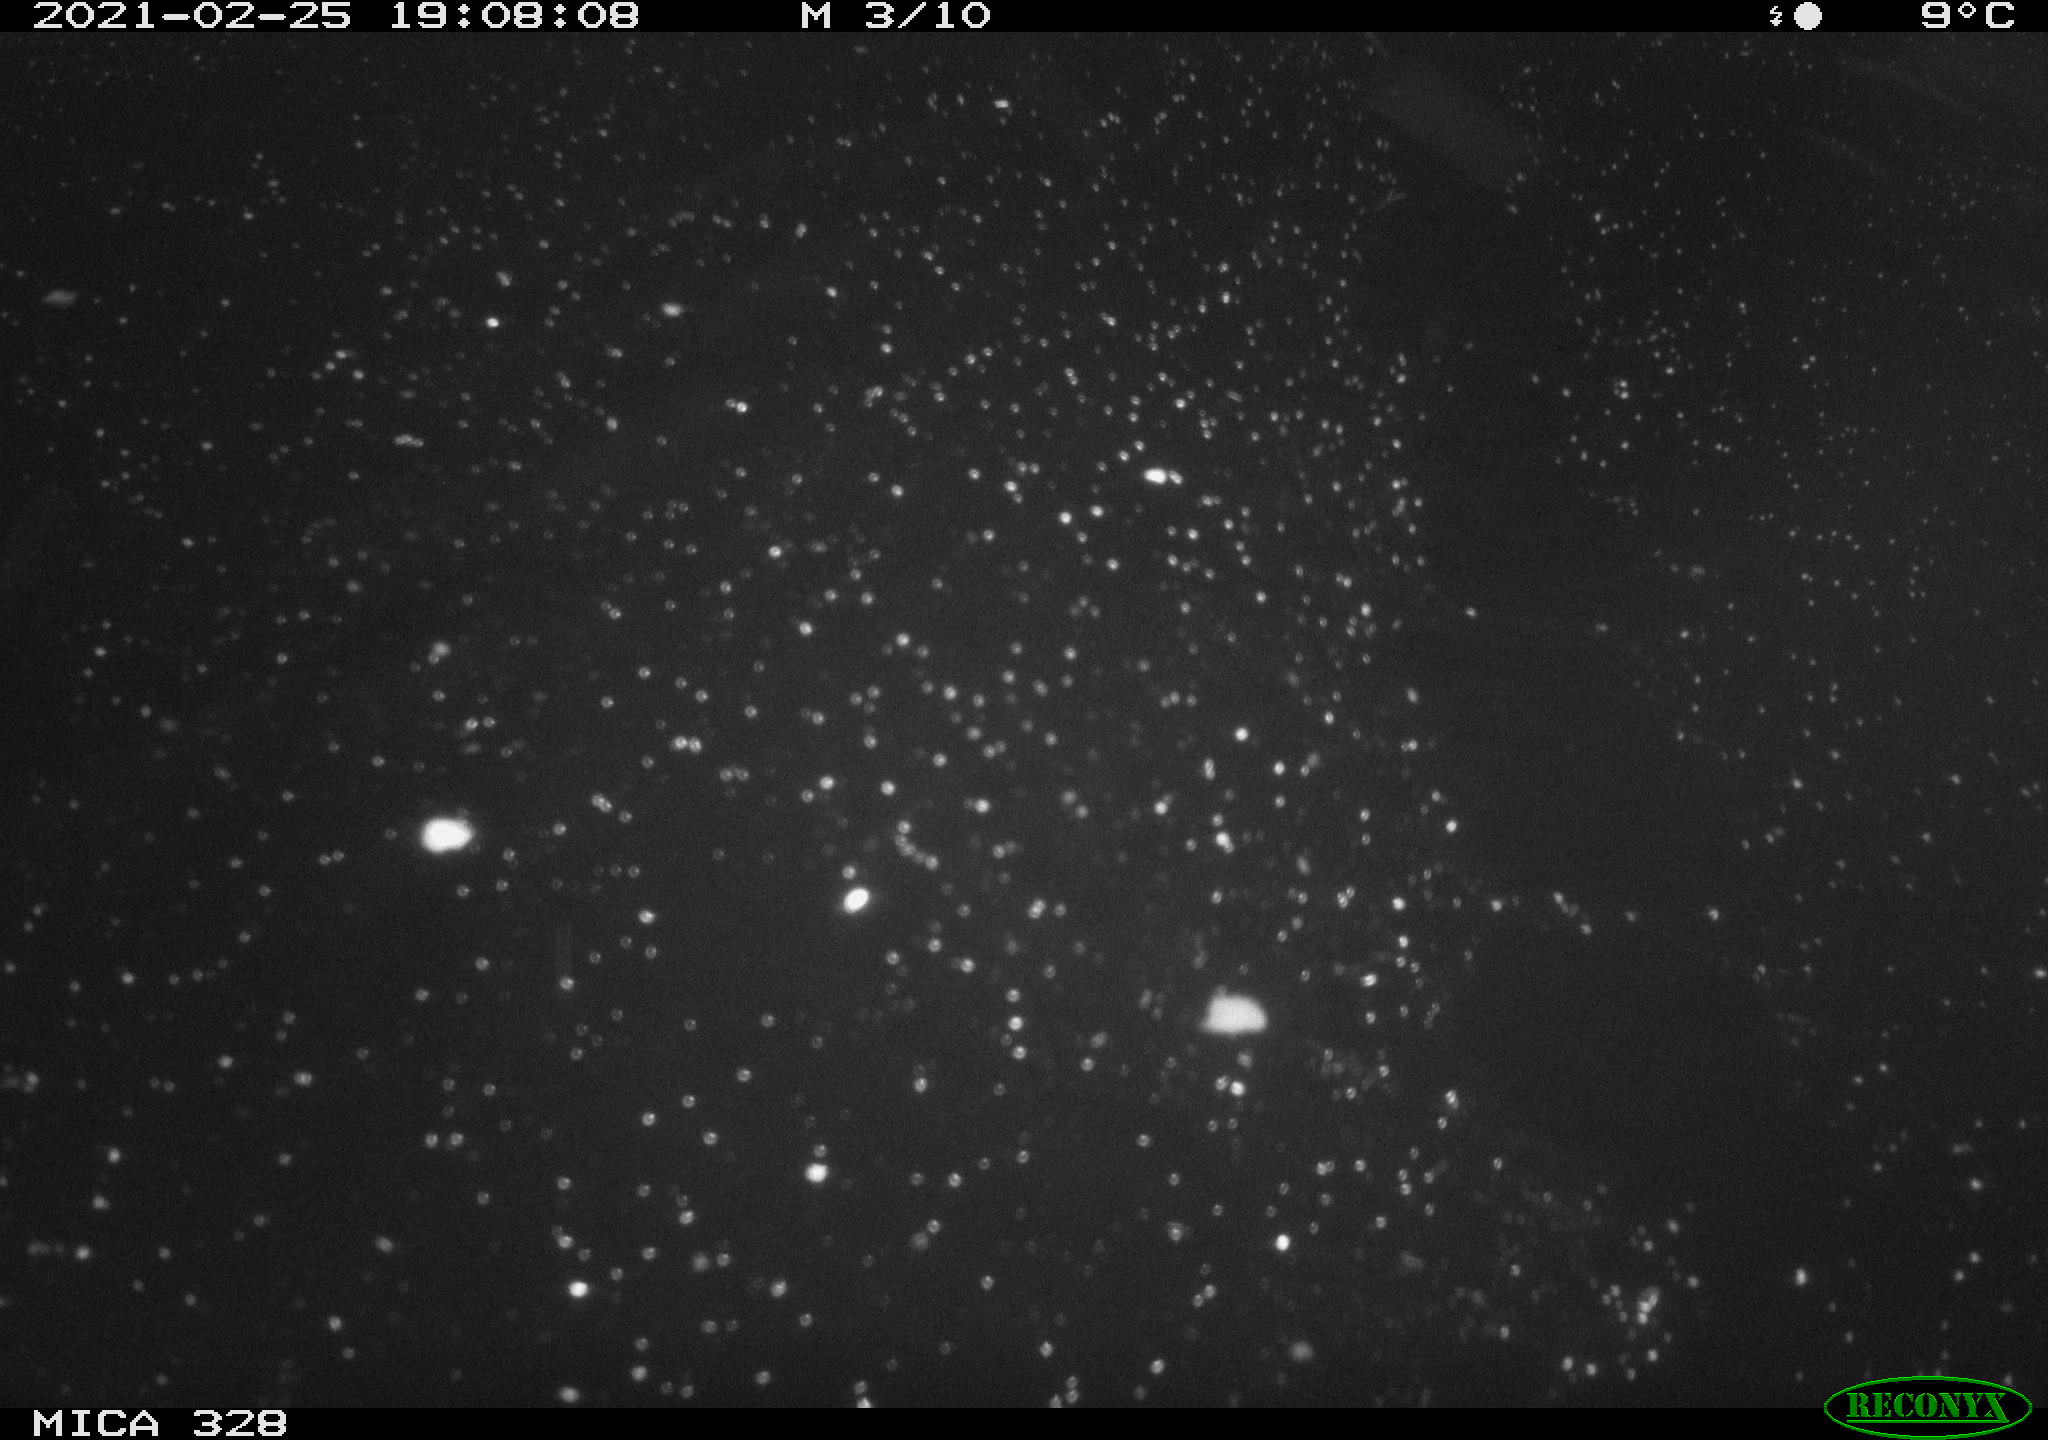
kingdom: Animalia
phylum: Chordata
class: Mammalia
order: Rodentia
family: Myocastoridae
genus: Myocastor
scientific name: Myocastor coypus
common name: Coypu
